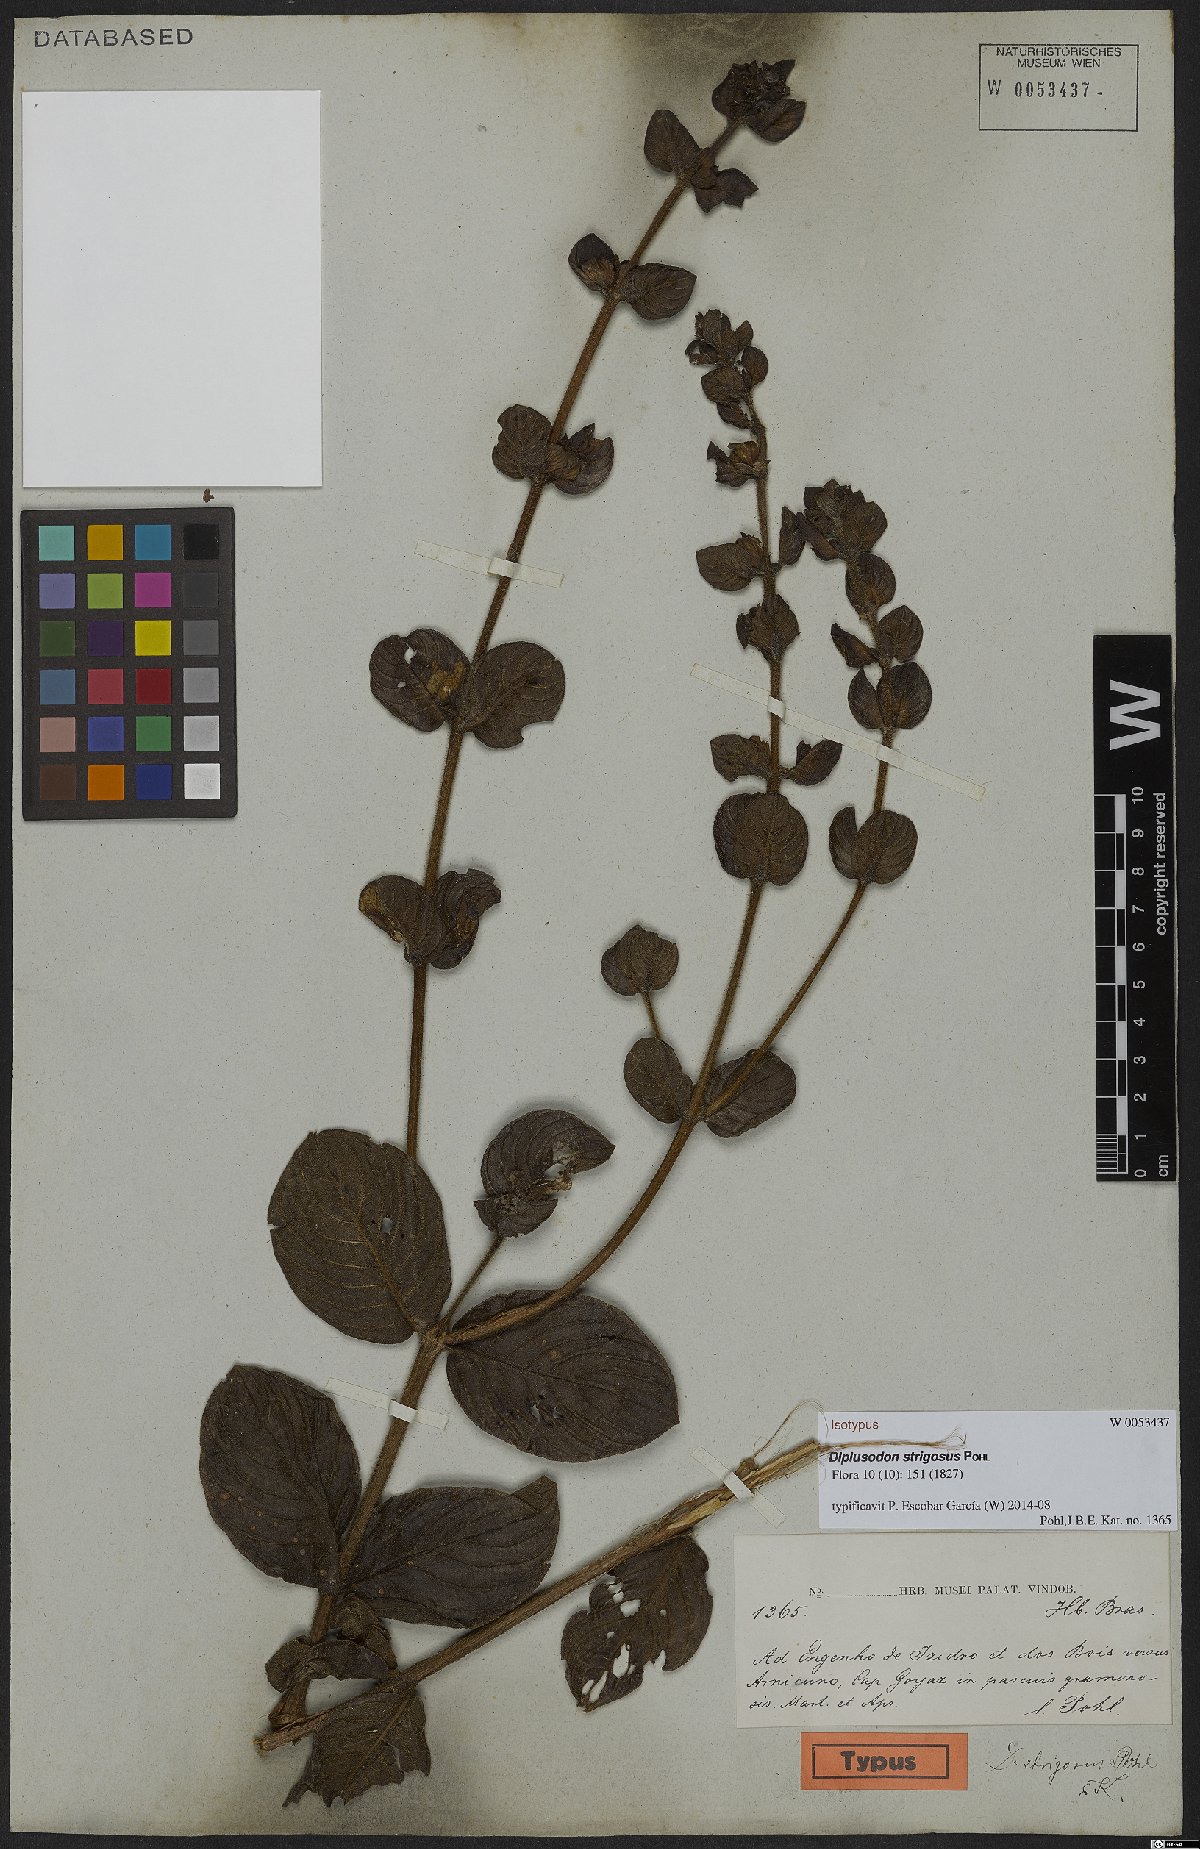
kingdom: Plantae
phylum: Tracheophyta
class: Magnoliopsida
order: Myrtales
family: Lythraceae
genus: Diplusodon
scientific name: Diplusodon strigosus
